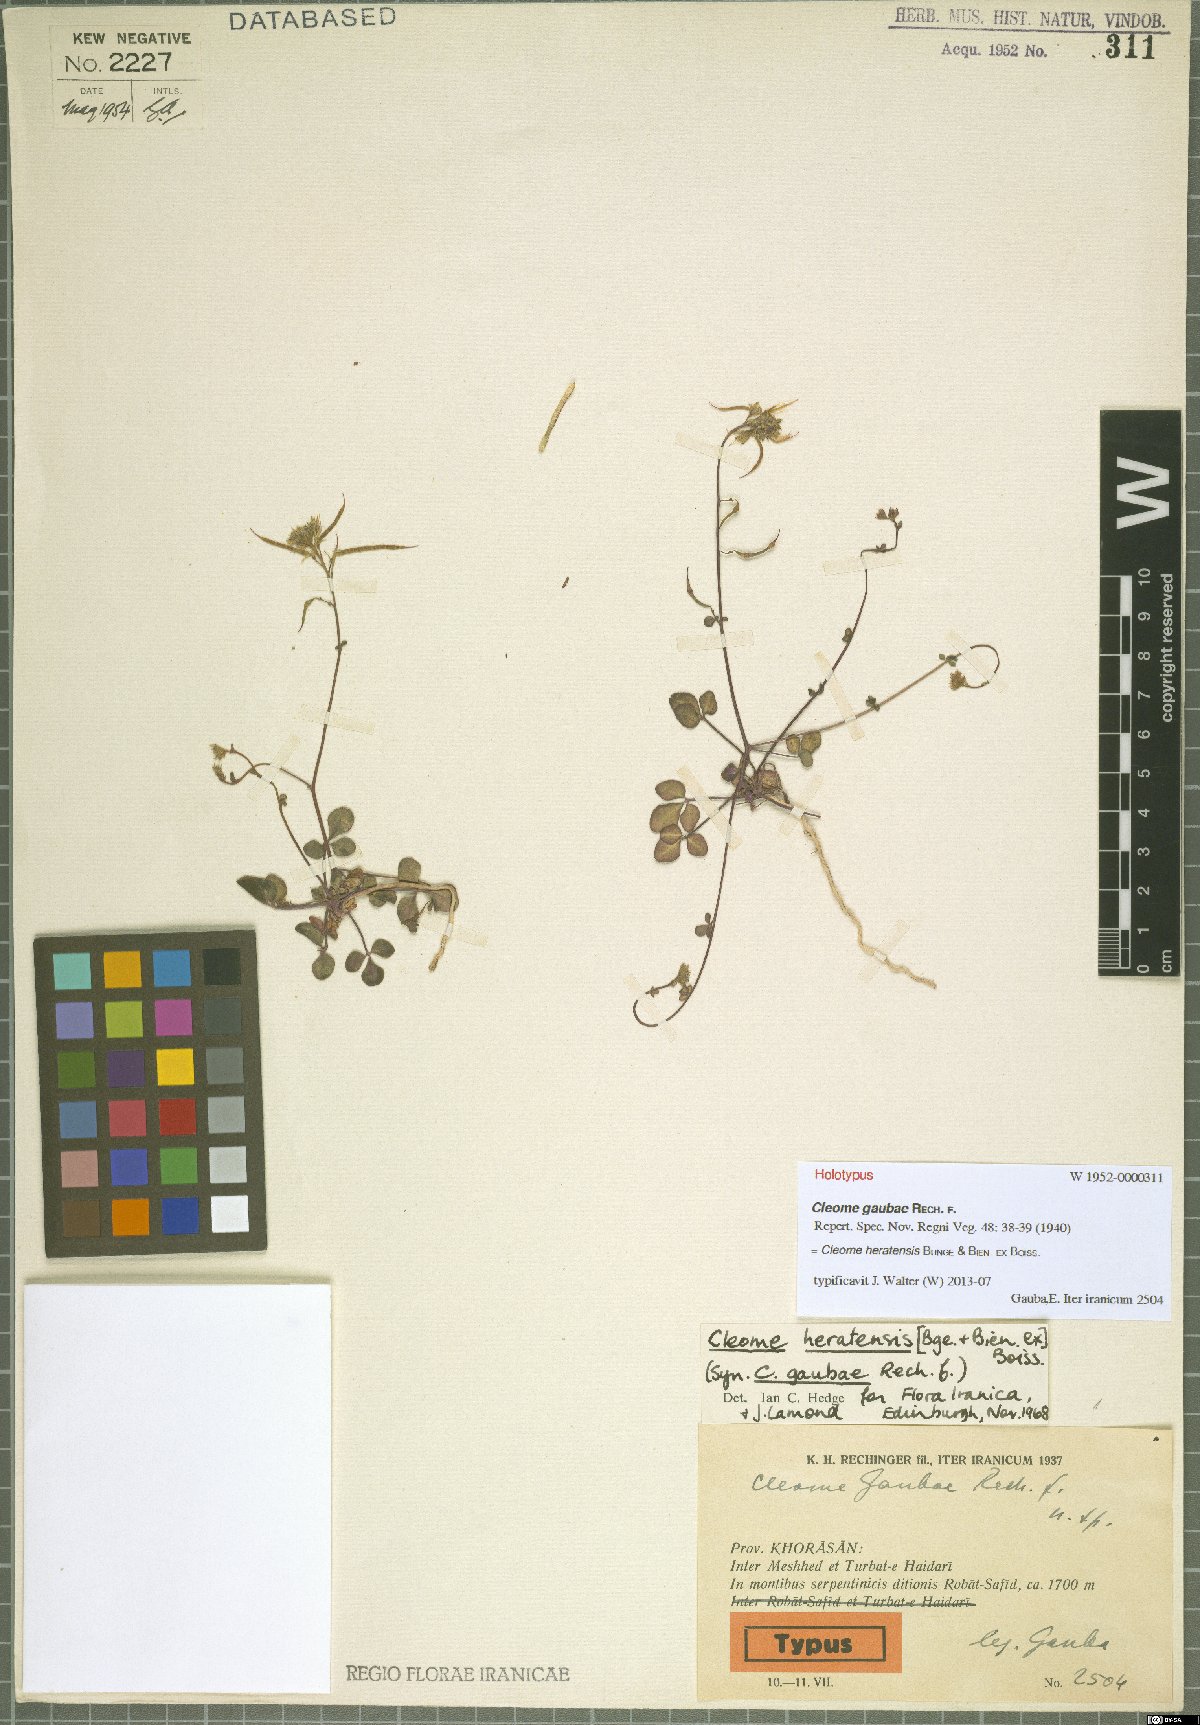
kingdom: Plantae
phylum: Tracheophyta
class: Magnoliopsida
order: Brassicales
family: Cleomaceae
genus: Cleome
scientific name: Cleome heratensis
